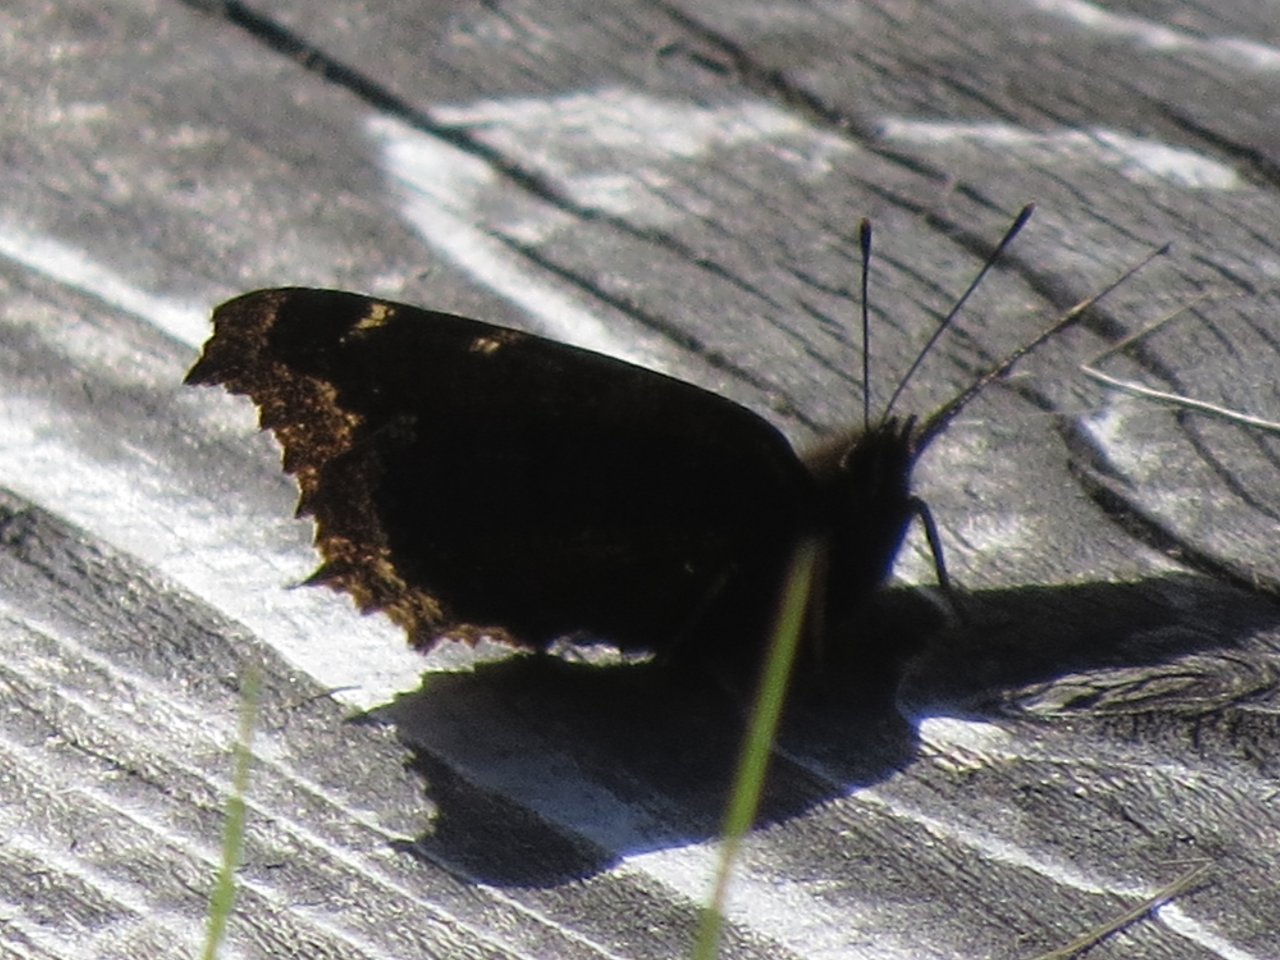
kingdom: Animalia
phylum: Arthropoda
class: Insecta
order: Lepidoptera
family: Nymphalidae
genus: Nymphalis
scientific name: Nymphalis antiopa
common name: Mourning Cloak
